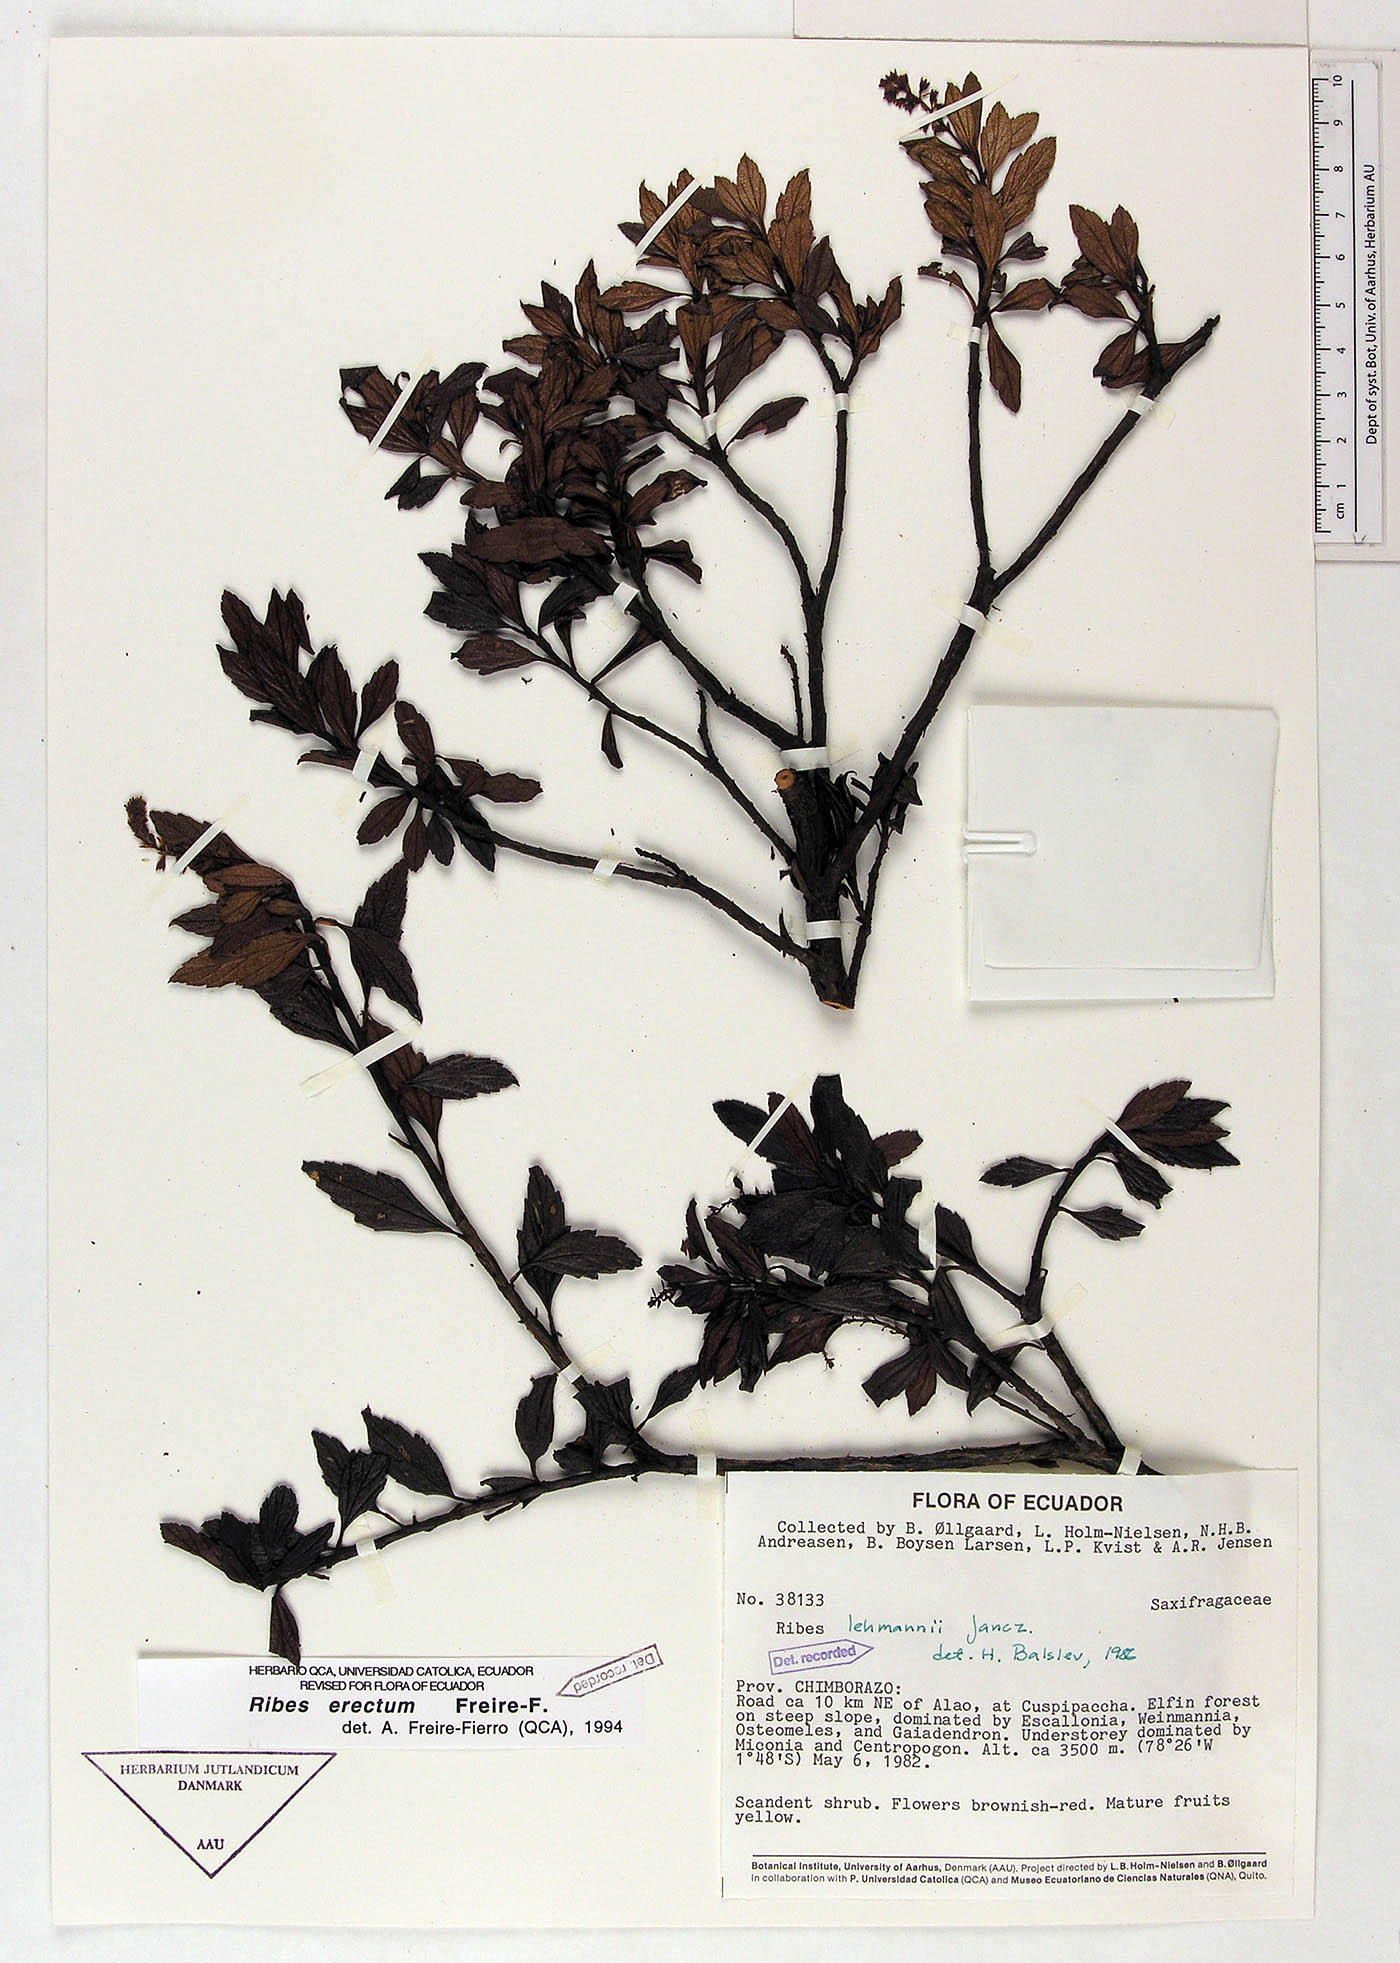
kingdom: Plantae
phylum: Tracheophyta
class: Magnoliopsida
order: Saxifragales
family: Grossulariaceae
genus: Ribes
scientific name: Ribes erectum
